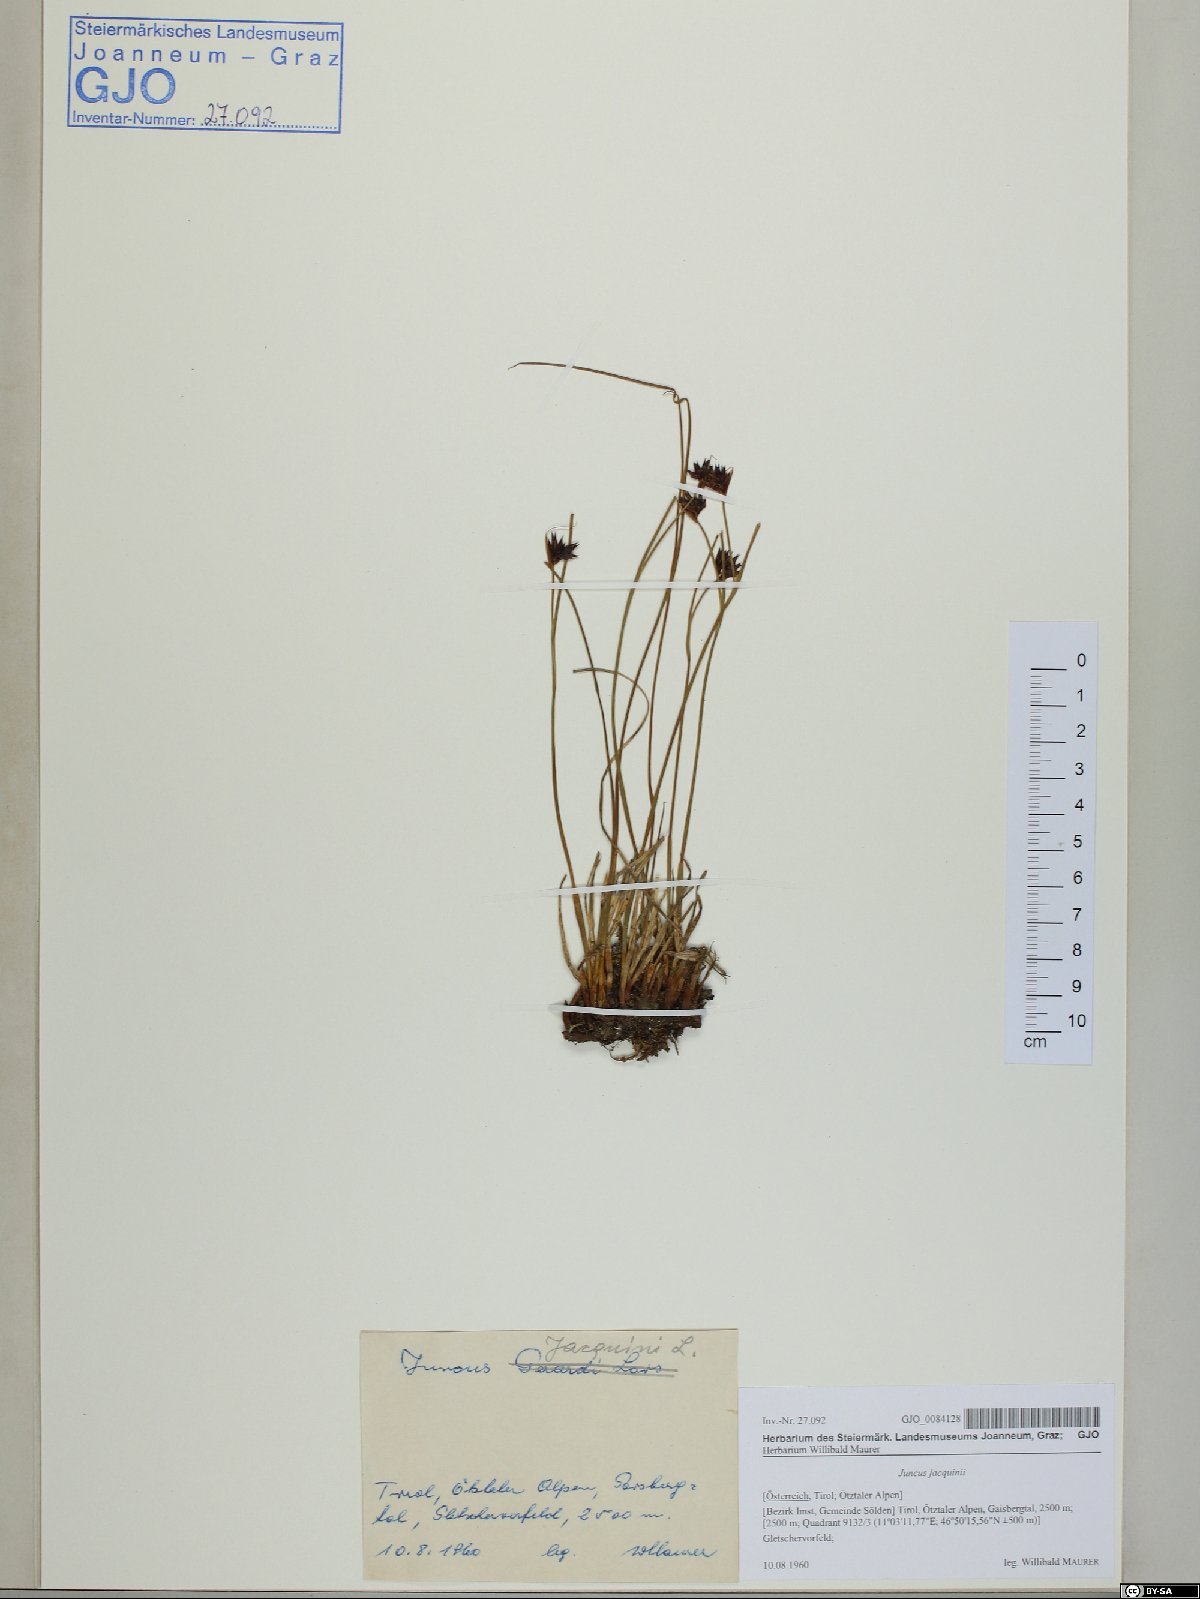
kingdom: Plantae
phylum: Tracheophyta
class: Liliopsida
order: Poales
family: Juncaceae
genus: Juncus
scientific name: Juncus jacquinii
